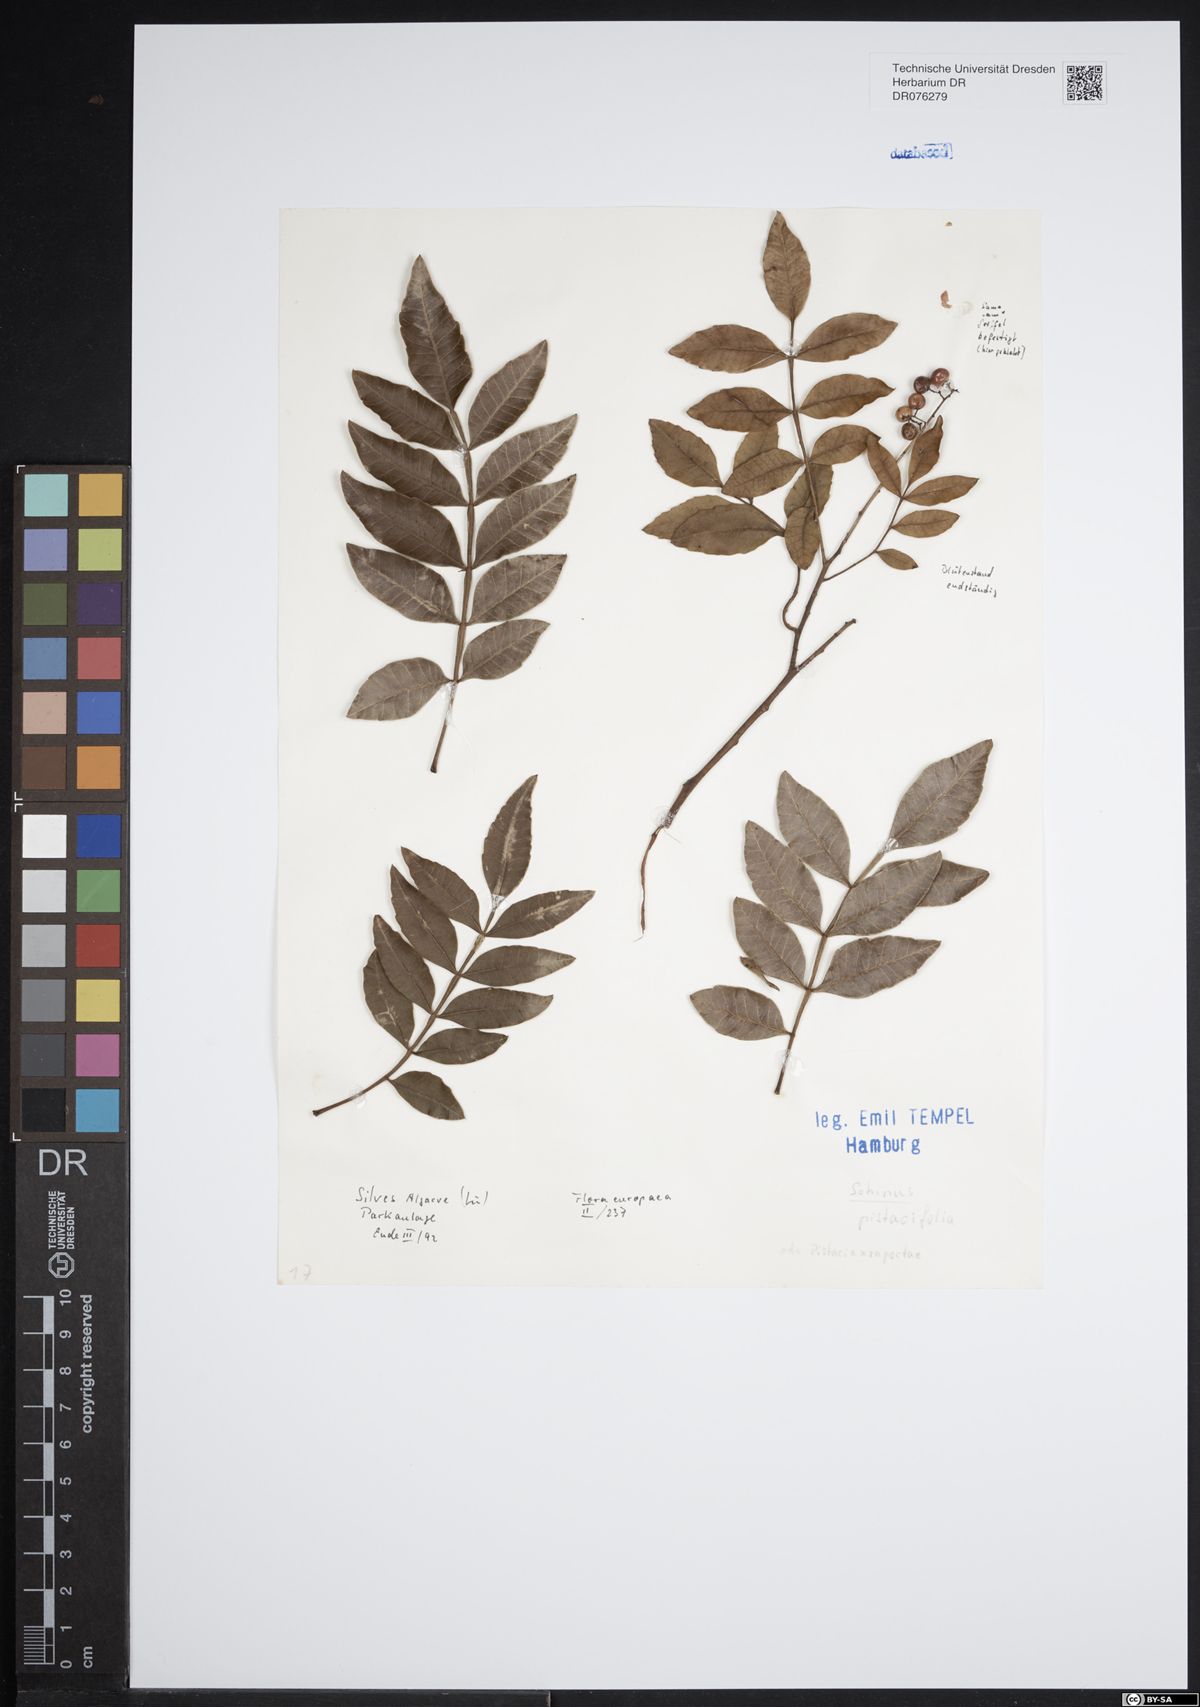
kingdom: Plantae
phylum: Tracheophyta
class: Magnoliopsida
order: Sapindales
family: Anacardiaceae
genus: Schinus
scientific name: Schinus
